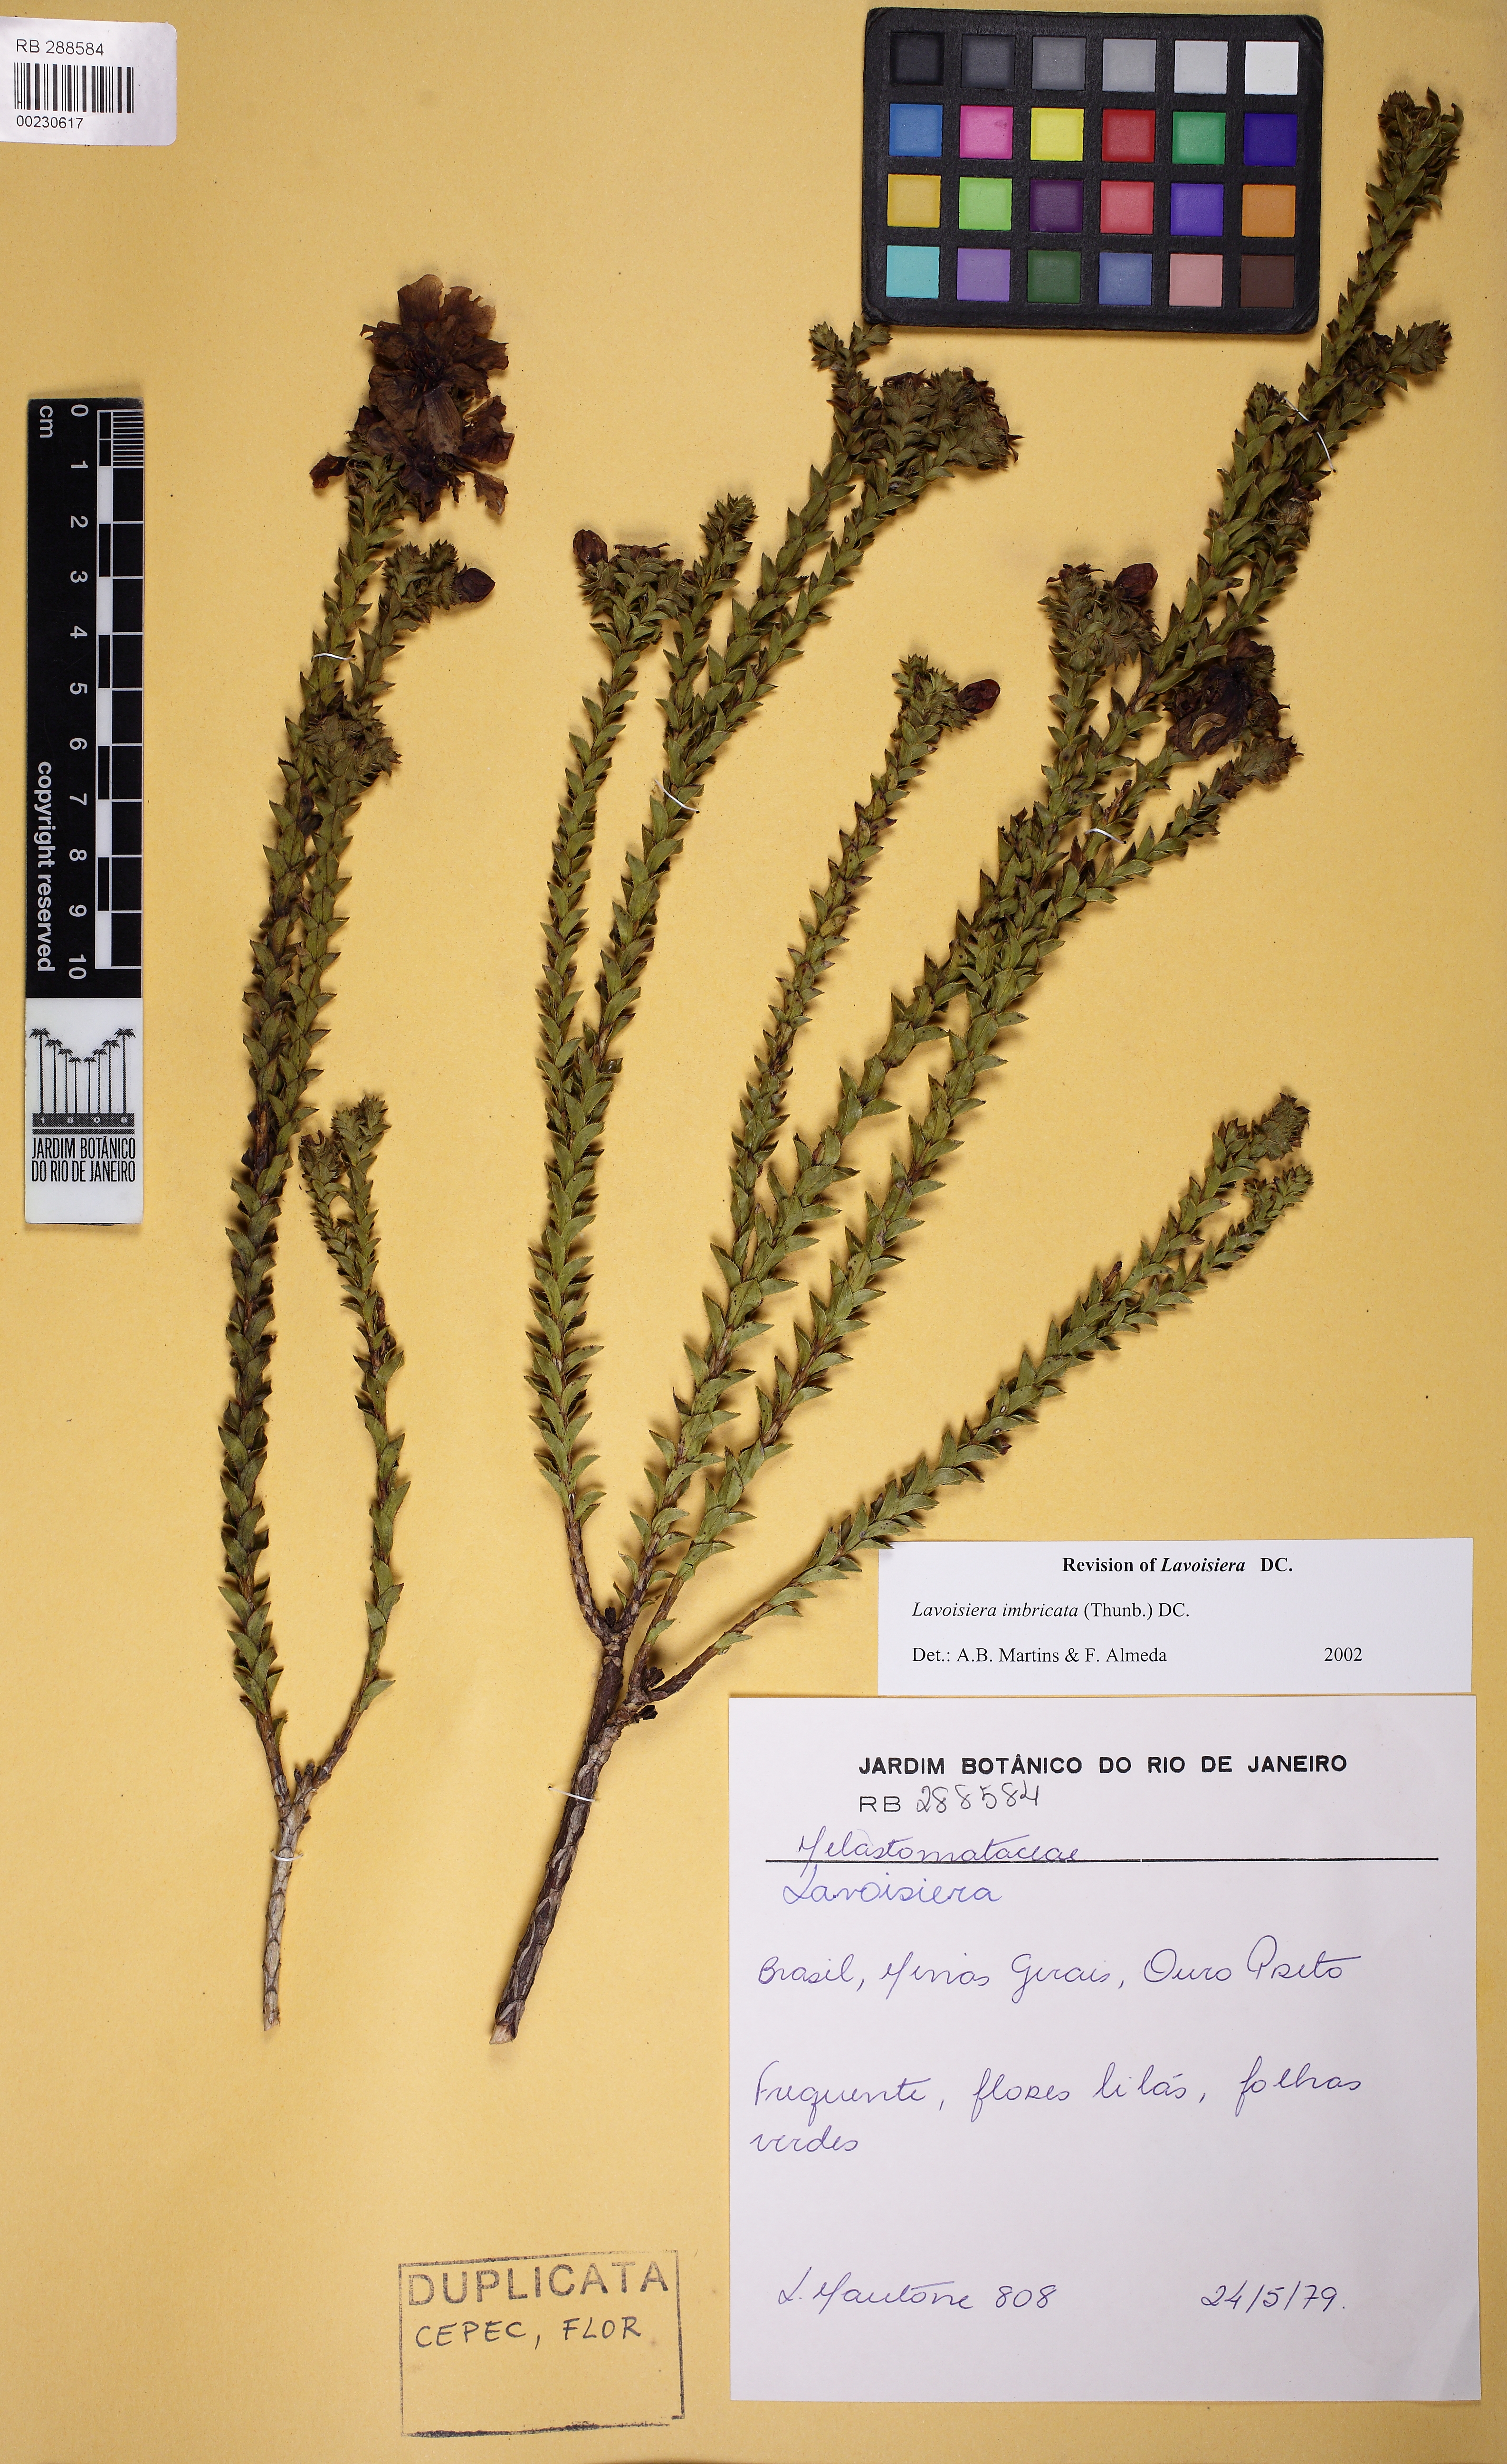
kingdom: Plantae
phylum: Tracheophyta
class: Magnoliopsida
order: Myrtales
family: Melastomataceae
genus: Microlicia
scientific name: Microlicia cataphracta
